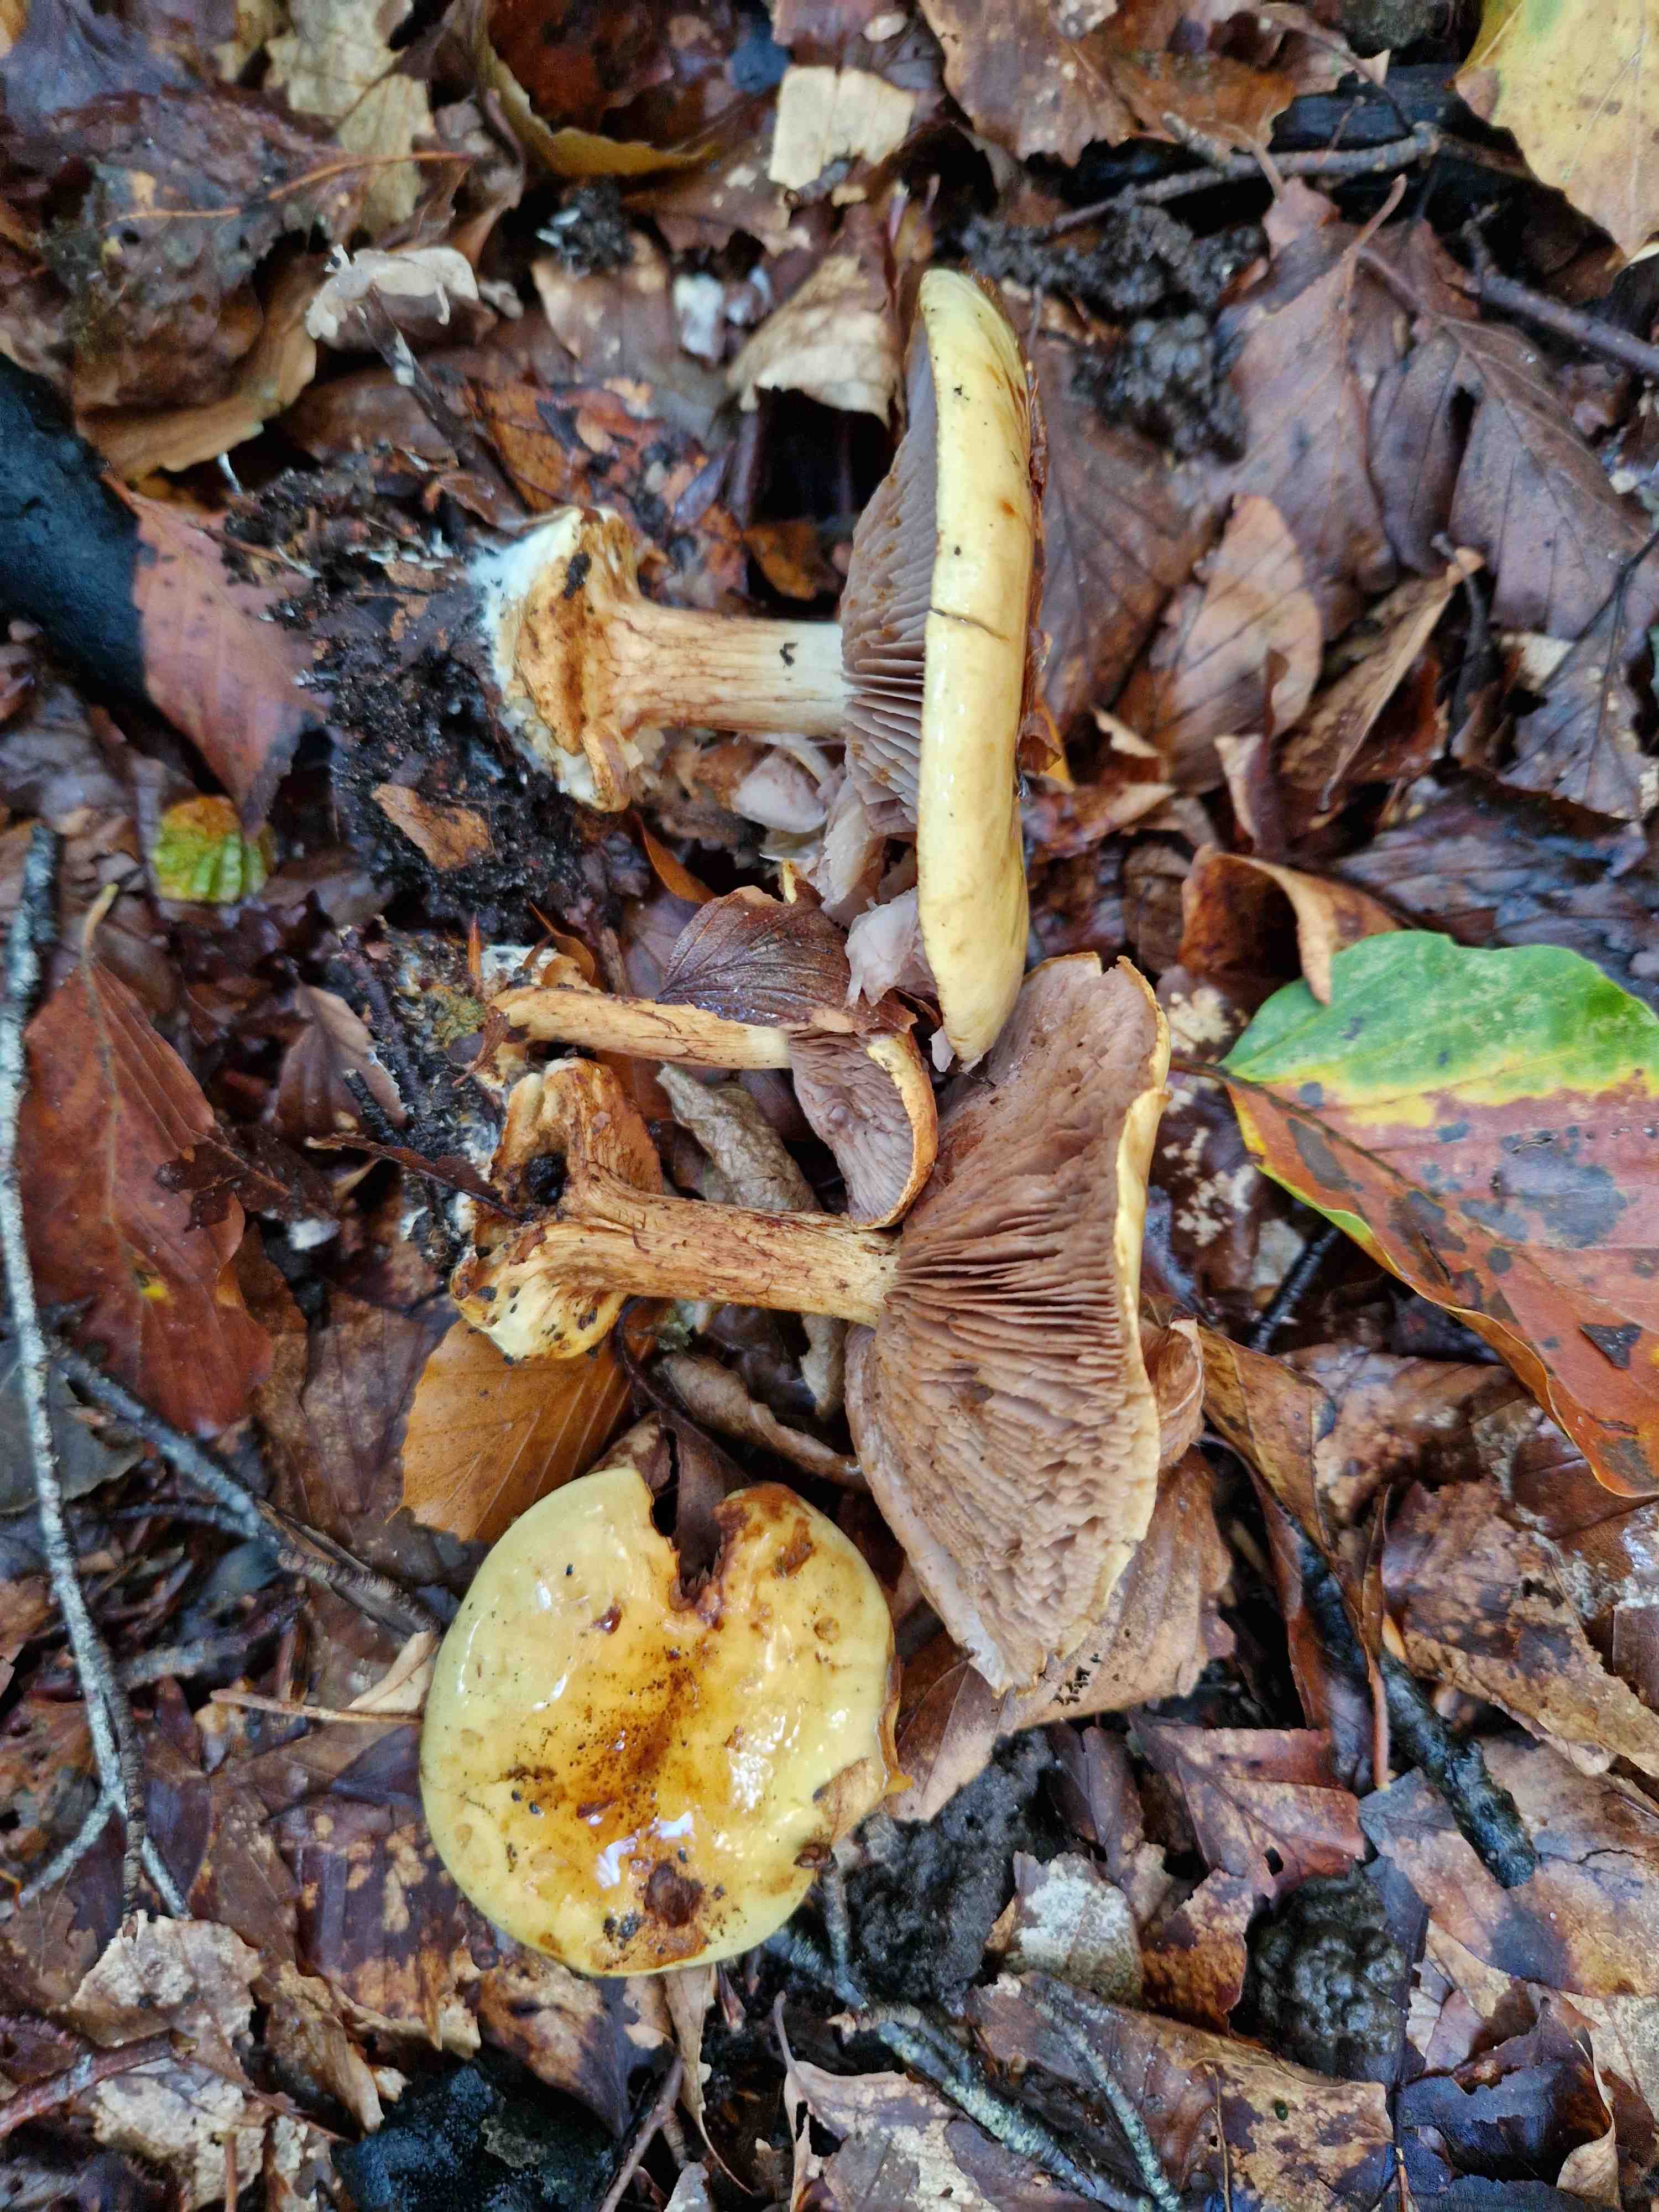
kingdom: Fungi
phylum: Basidiomycota
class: Agaricomycetes
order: Agaricales
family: Cortinariaceae
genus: Calonarius
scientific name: Calonarius callochrous
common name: lillabladet slørhat
